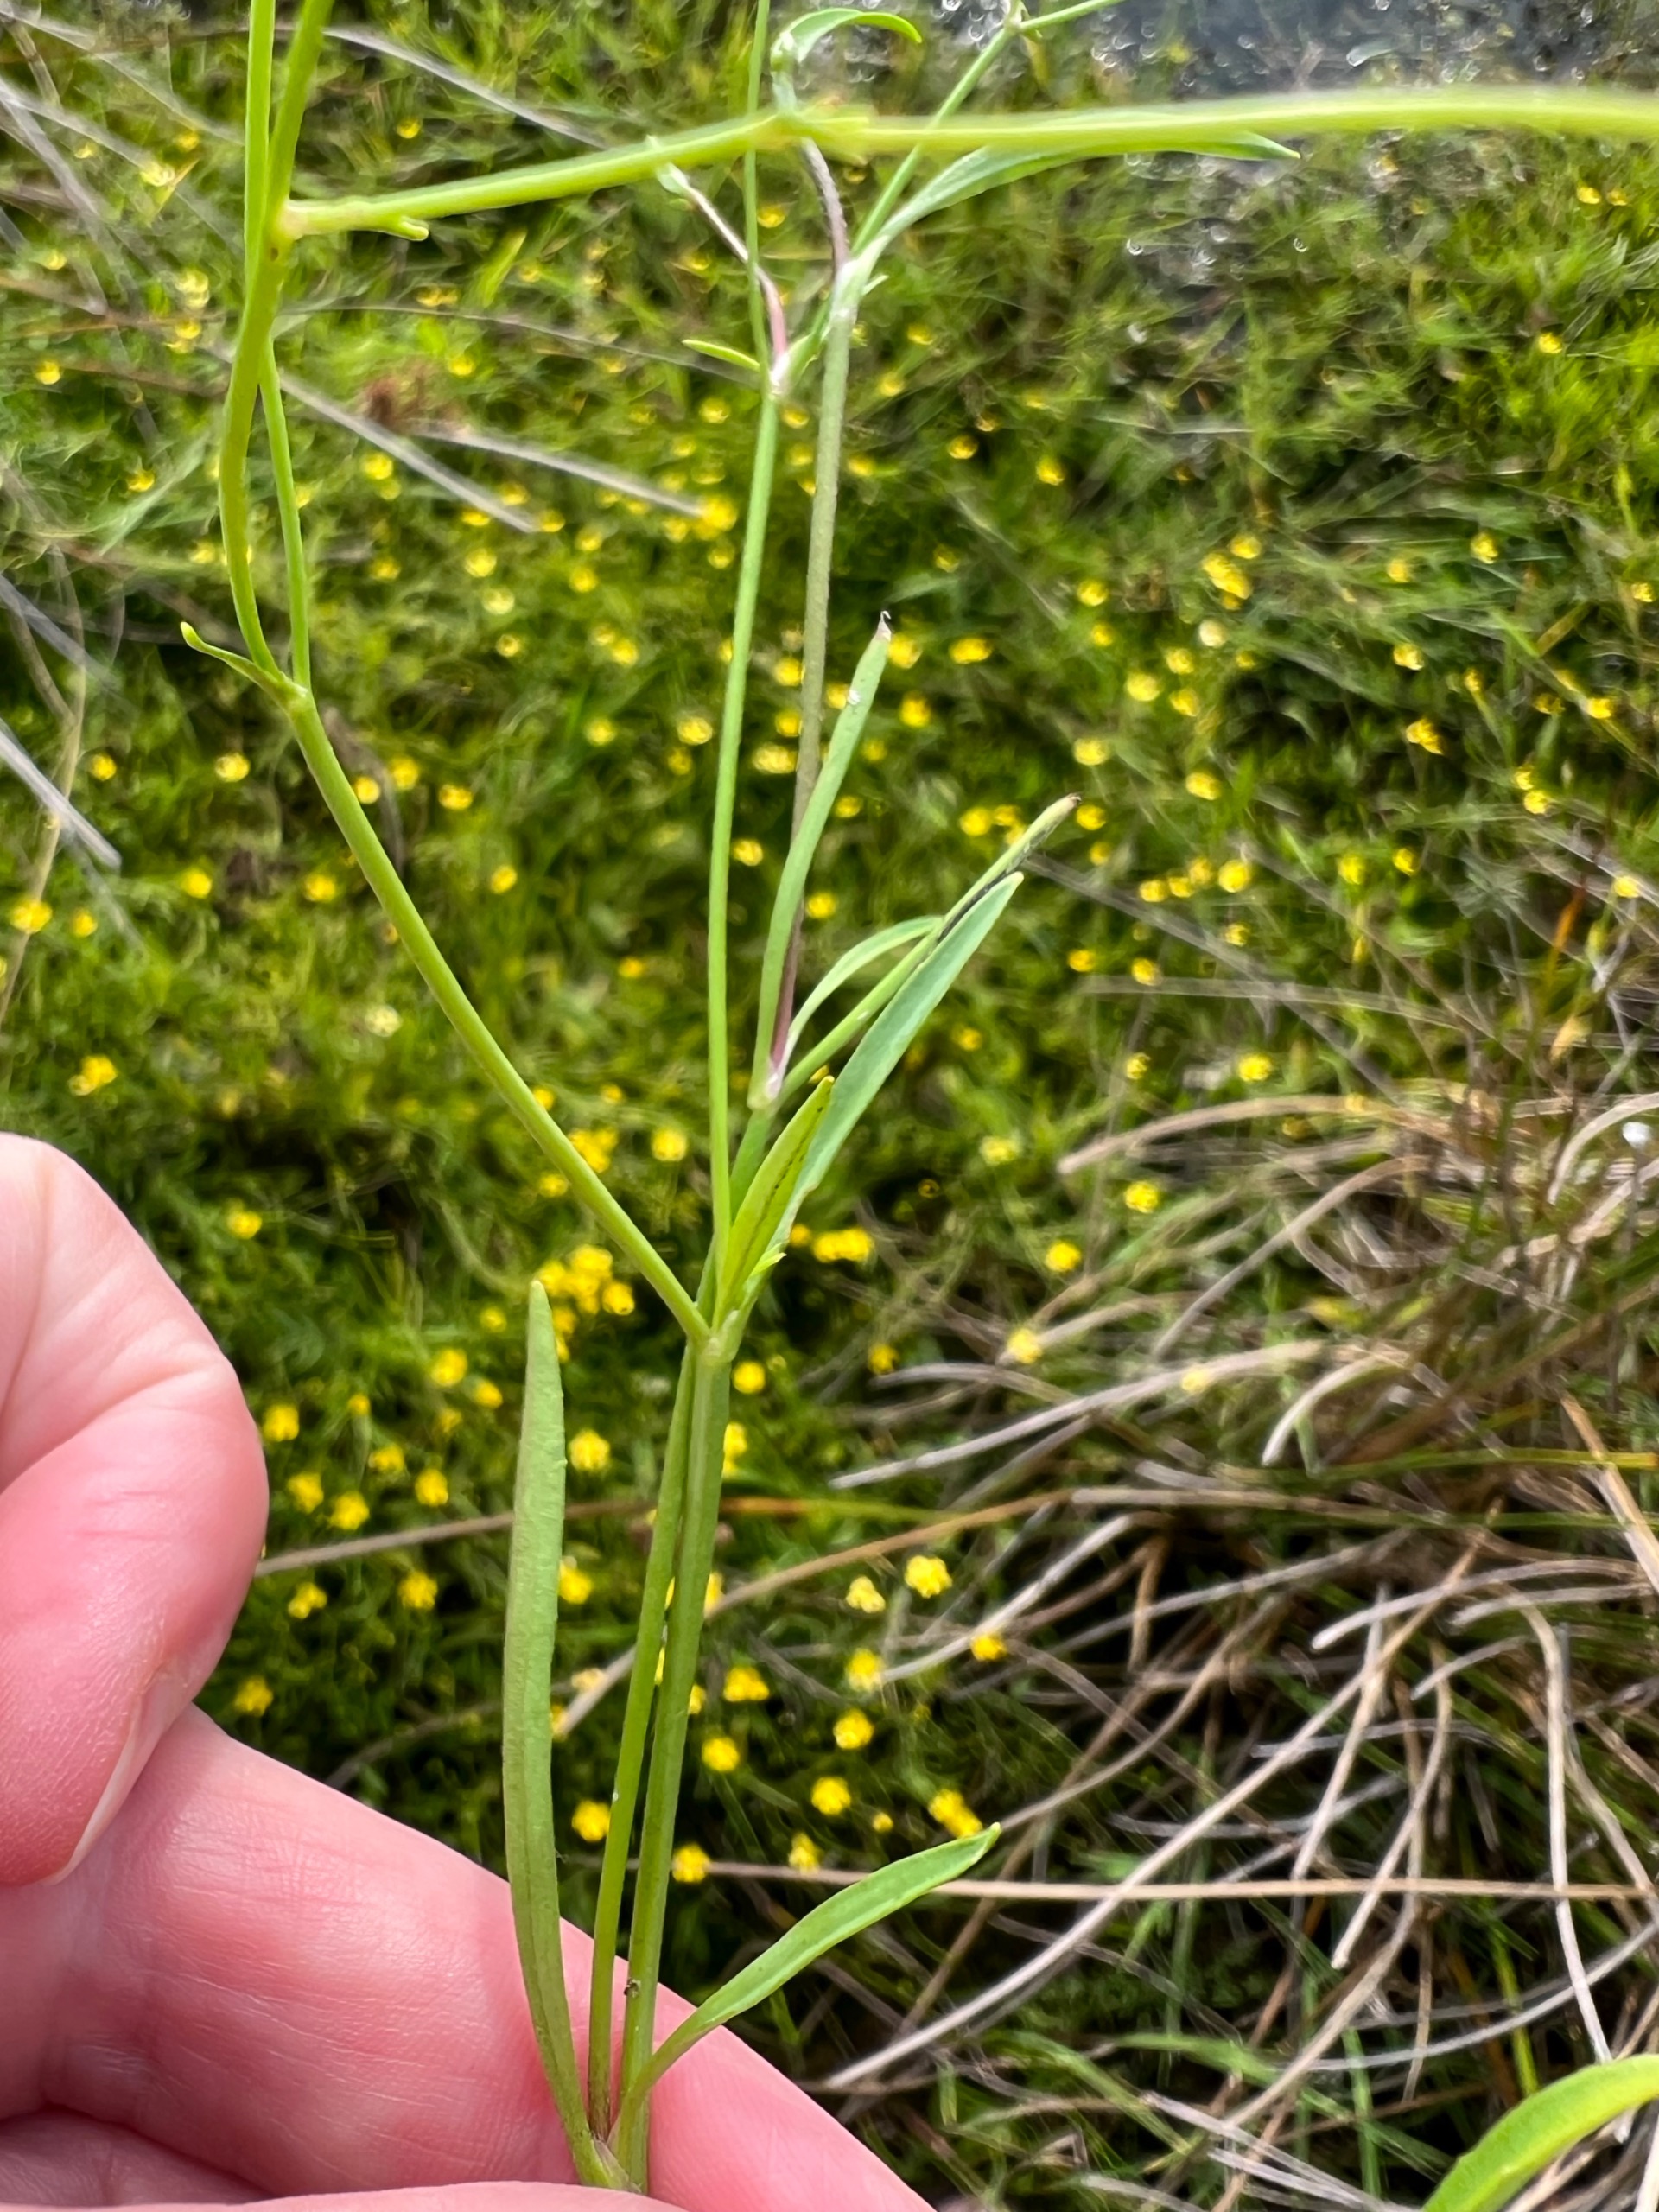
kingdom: Plantae
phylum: Tracheophyta
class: Magnoliopsida
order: Ranunculales
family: Ranunculaceae
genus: Ranunculus
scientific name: Ranunculus flammula
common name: Kær-ranunkel
